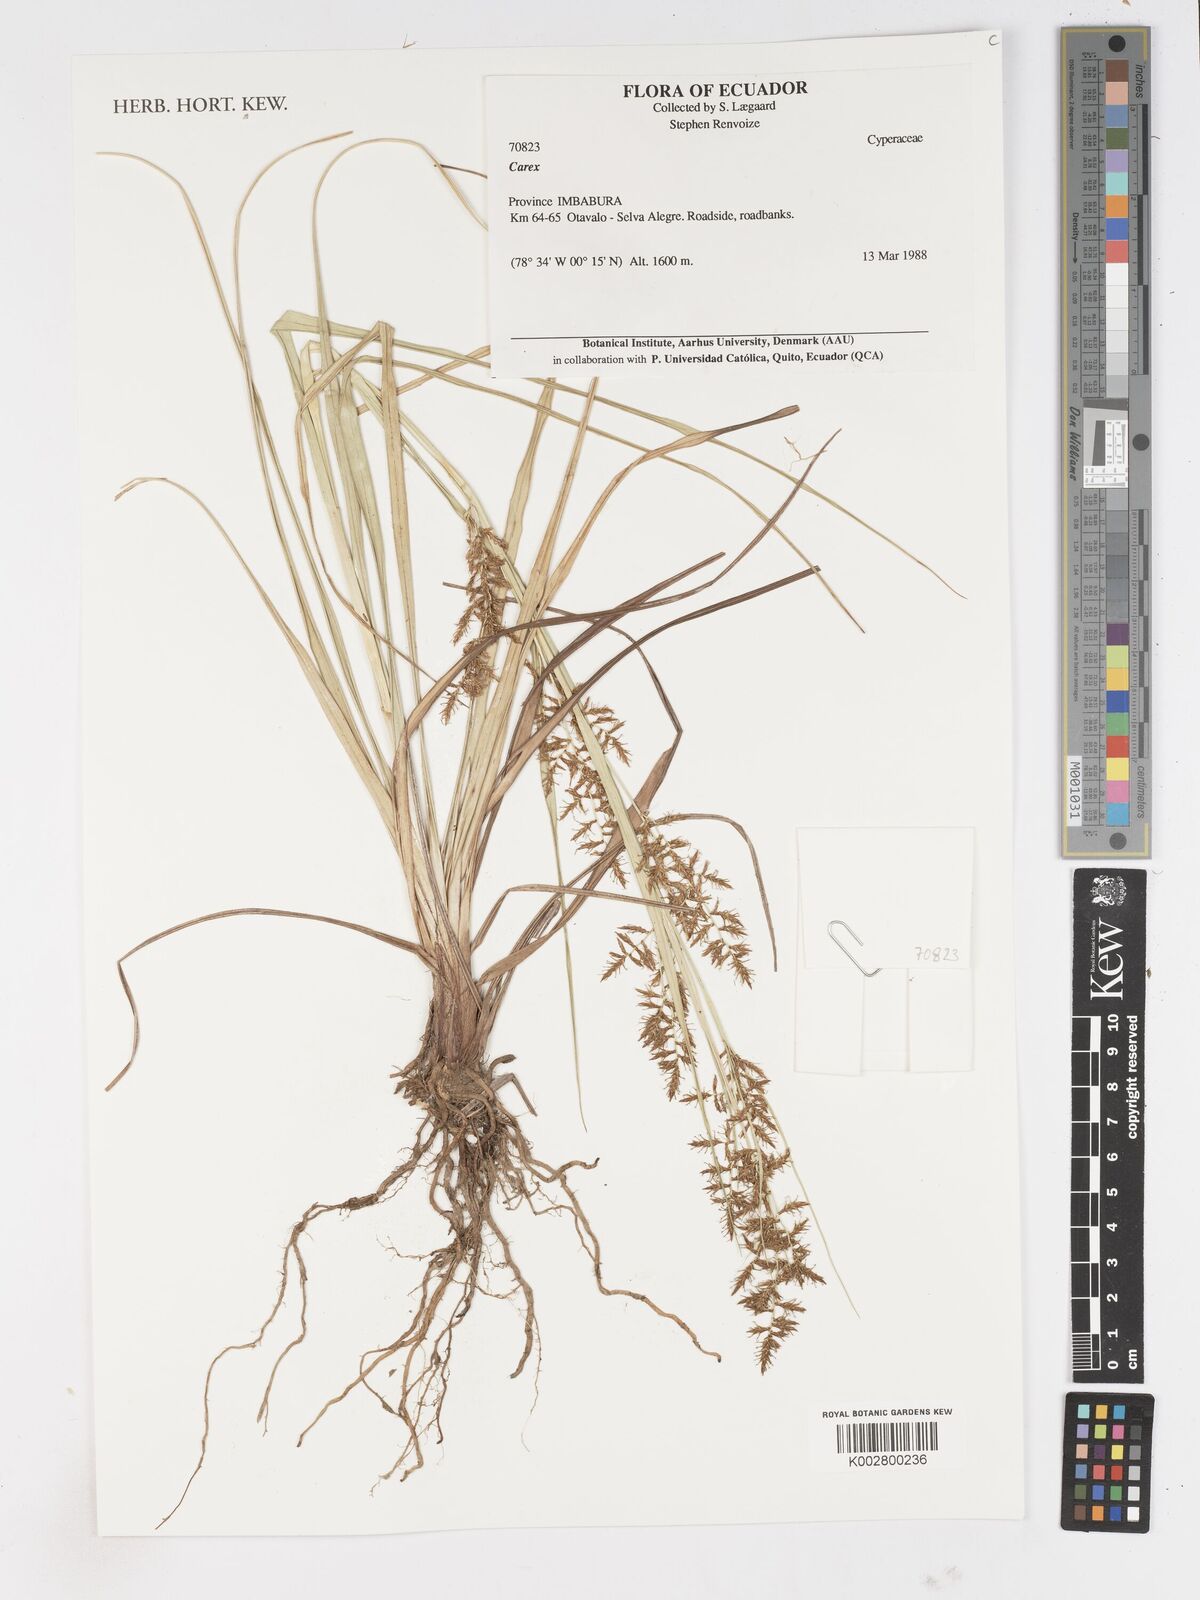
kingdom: Plantae
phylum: Tracheophyta
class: Liliopsida
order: Poales
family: Cyperaceae
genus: Carex
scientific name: Carex
